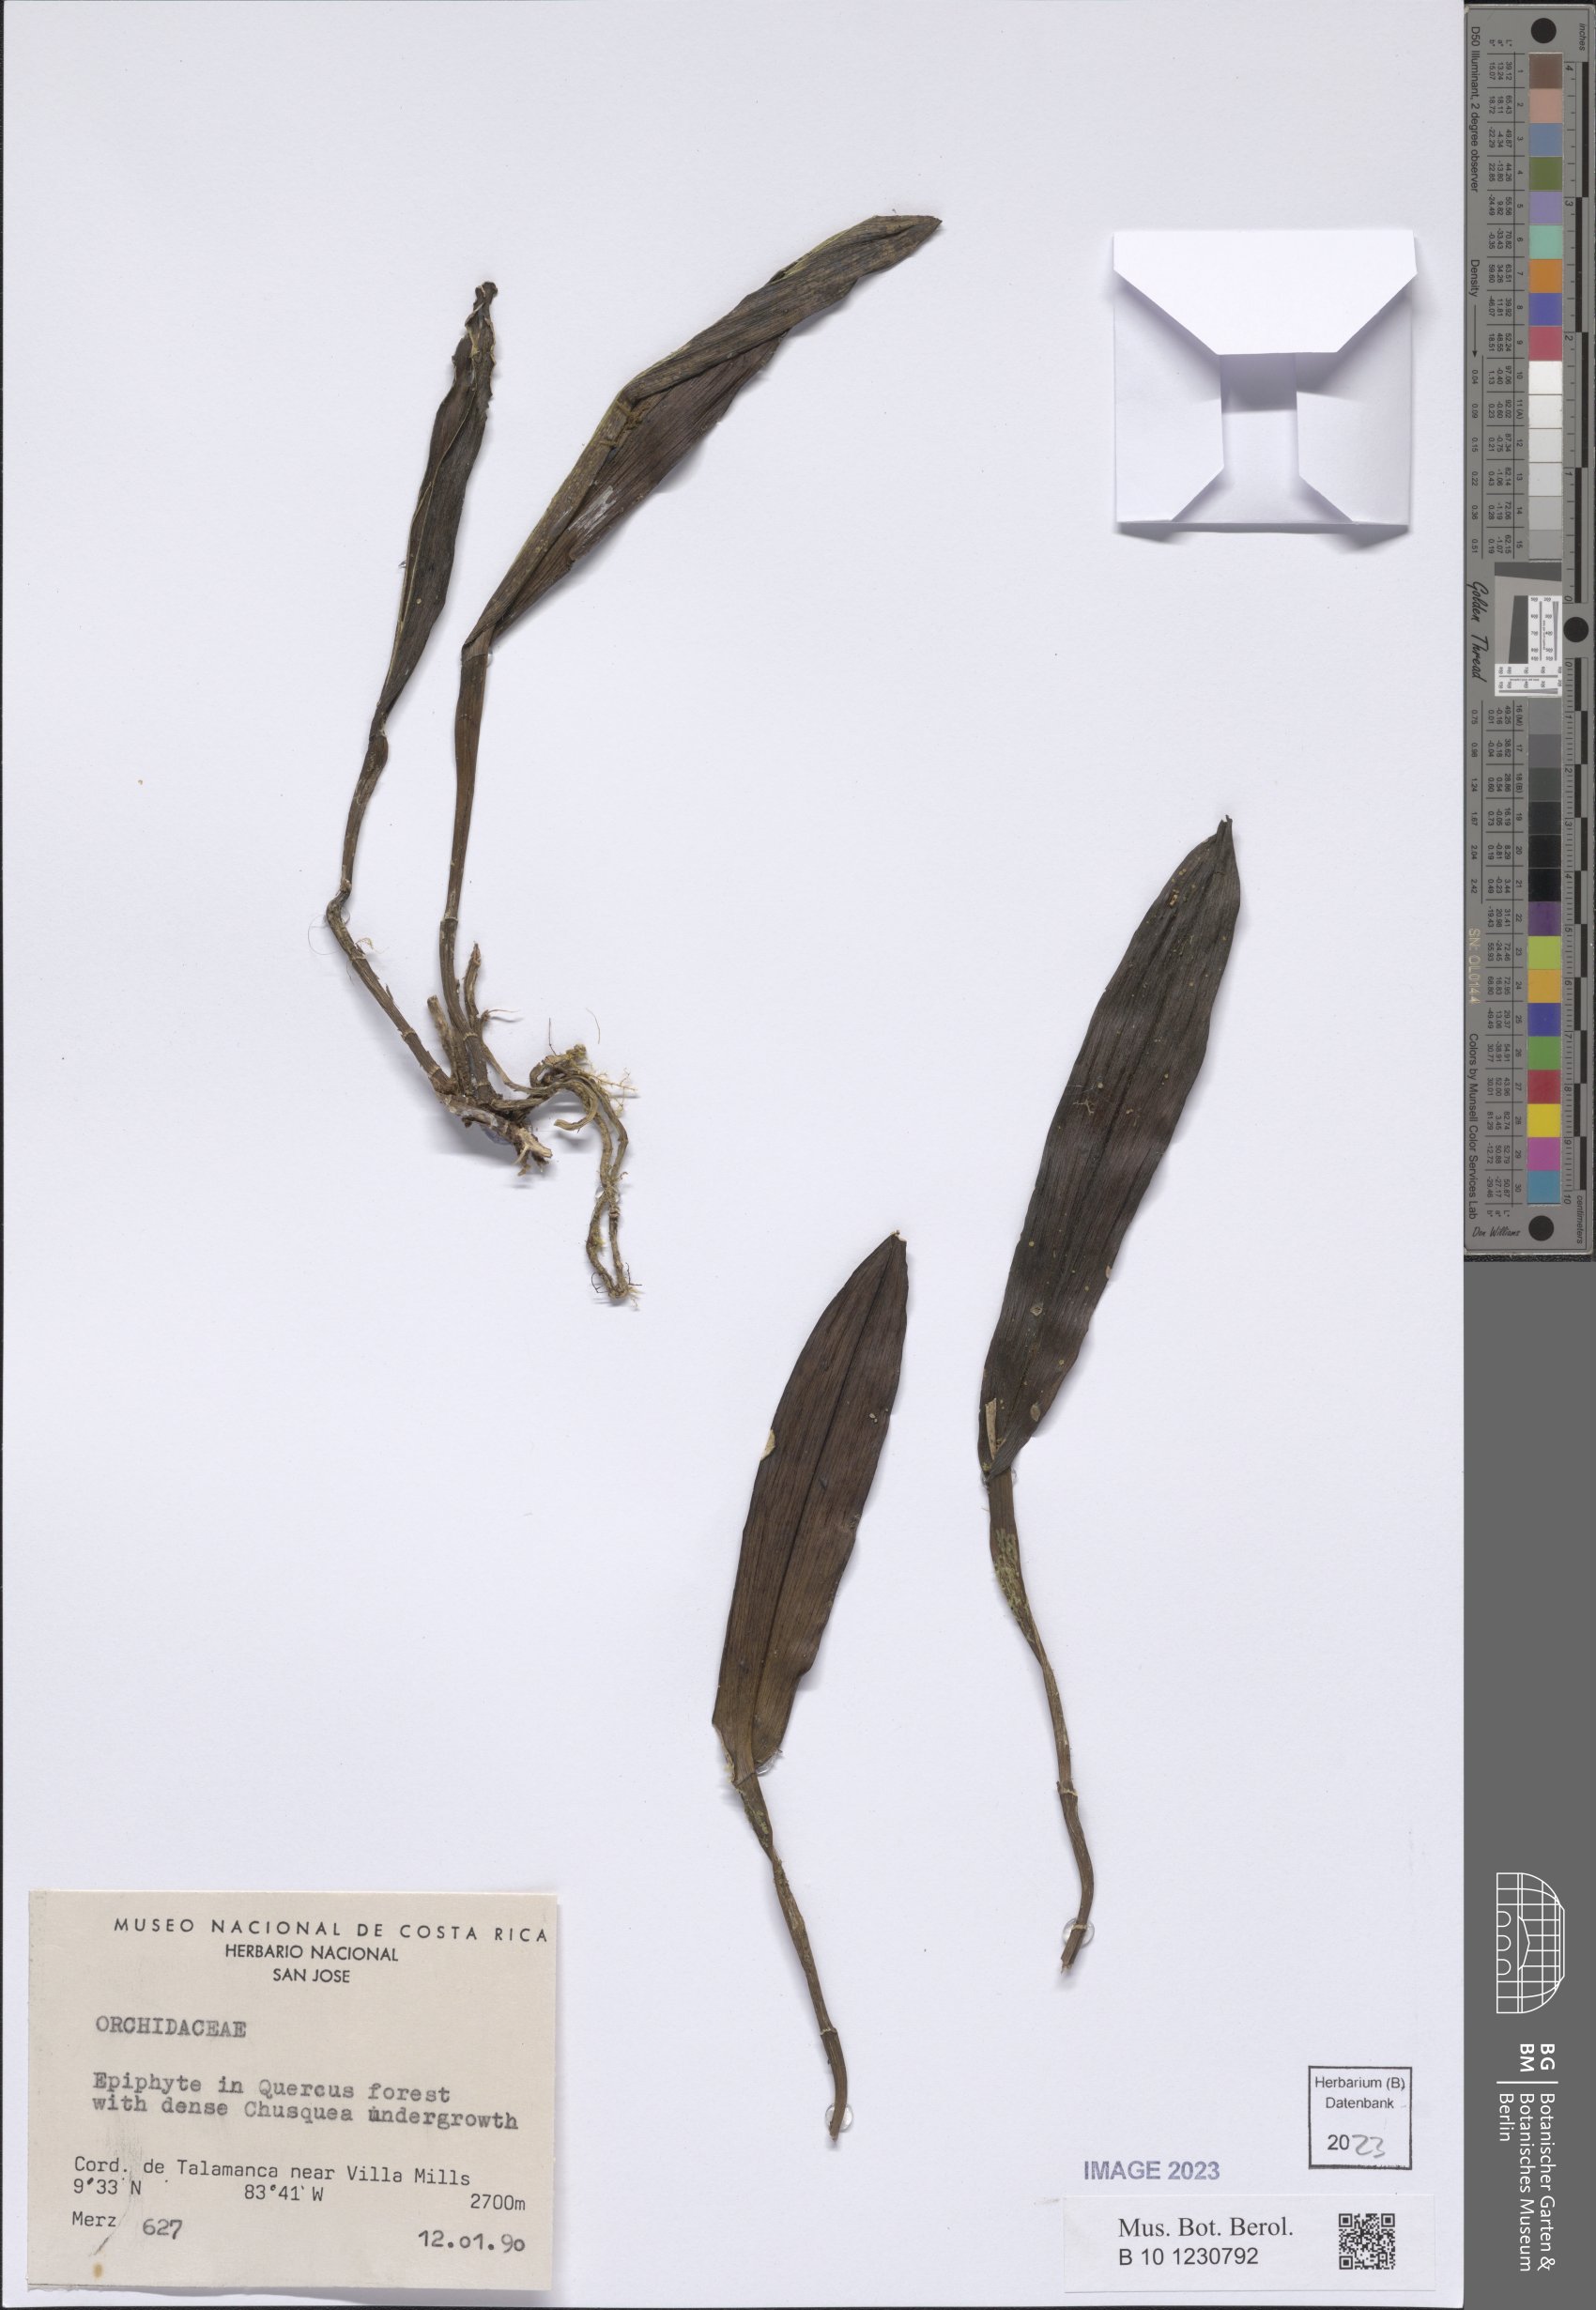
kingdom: Plantae
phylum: Tracheophyta
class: Liliopsida
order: Asparagales
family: Orchidaceae
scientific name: Orchidaceae
